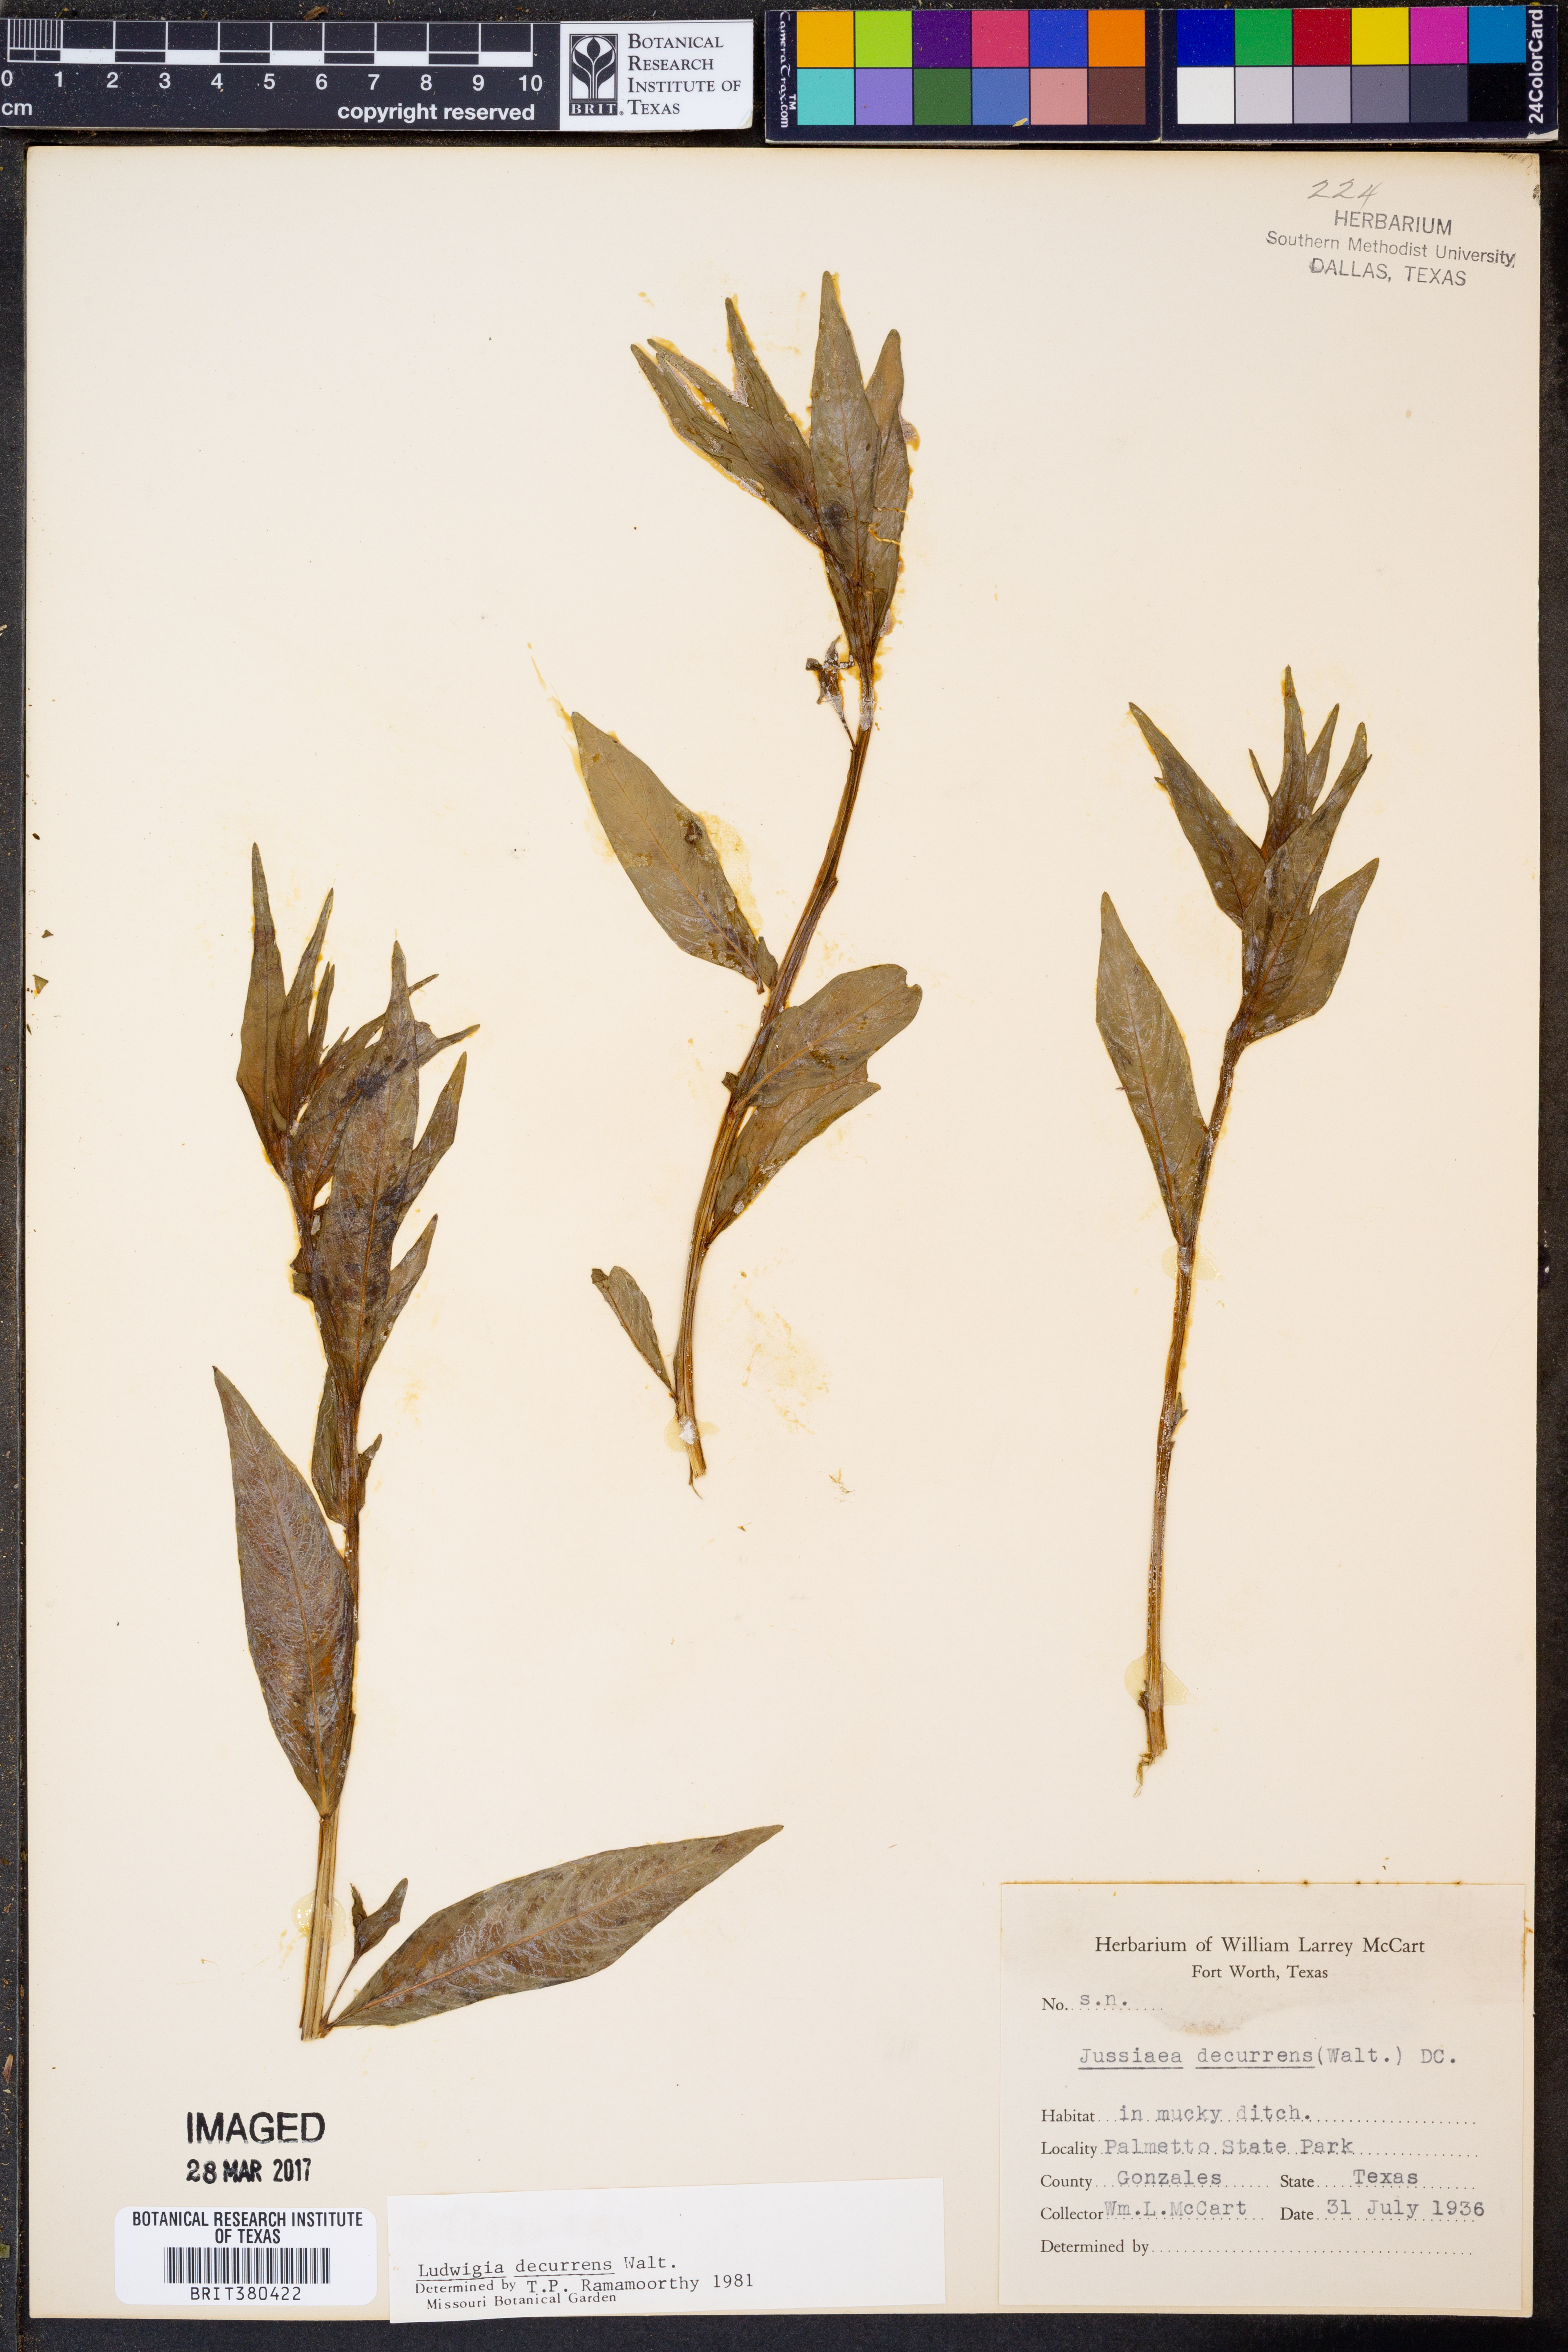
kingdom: Plantae
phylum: Tracheophyta
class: Magnoliopsida
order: Myrtales
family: Onagraceae
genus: Ludwigia
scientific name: Ludwigia decurrens
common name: Winged water-primrose
